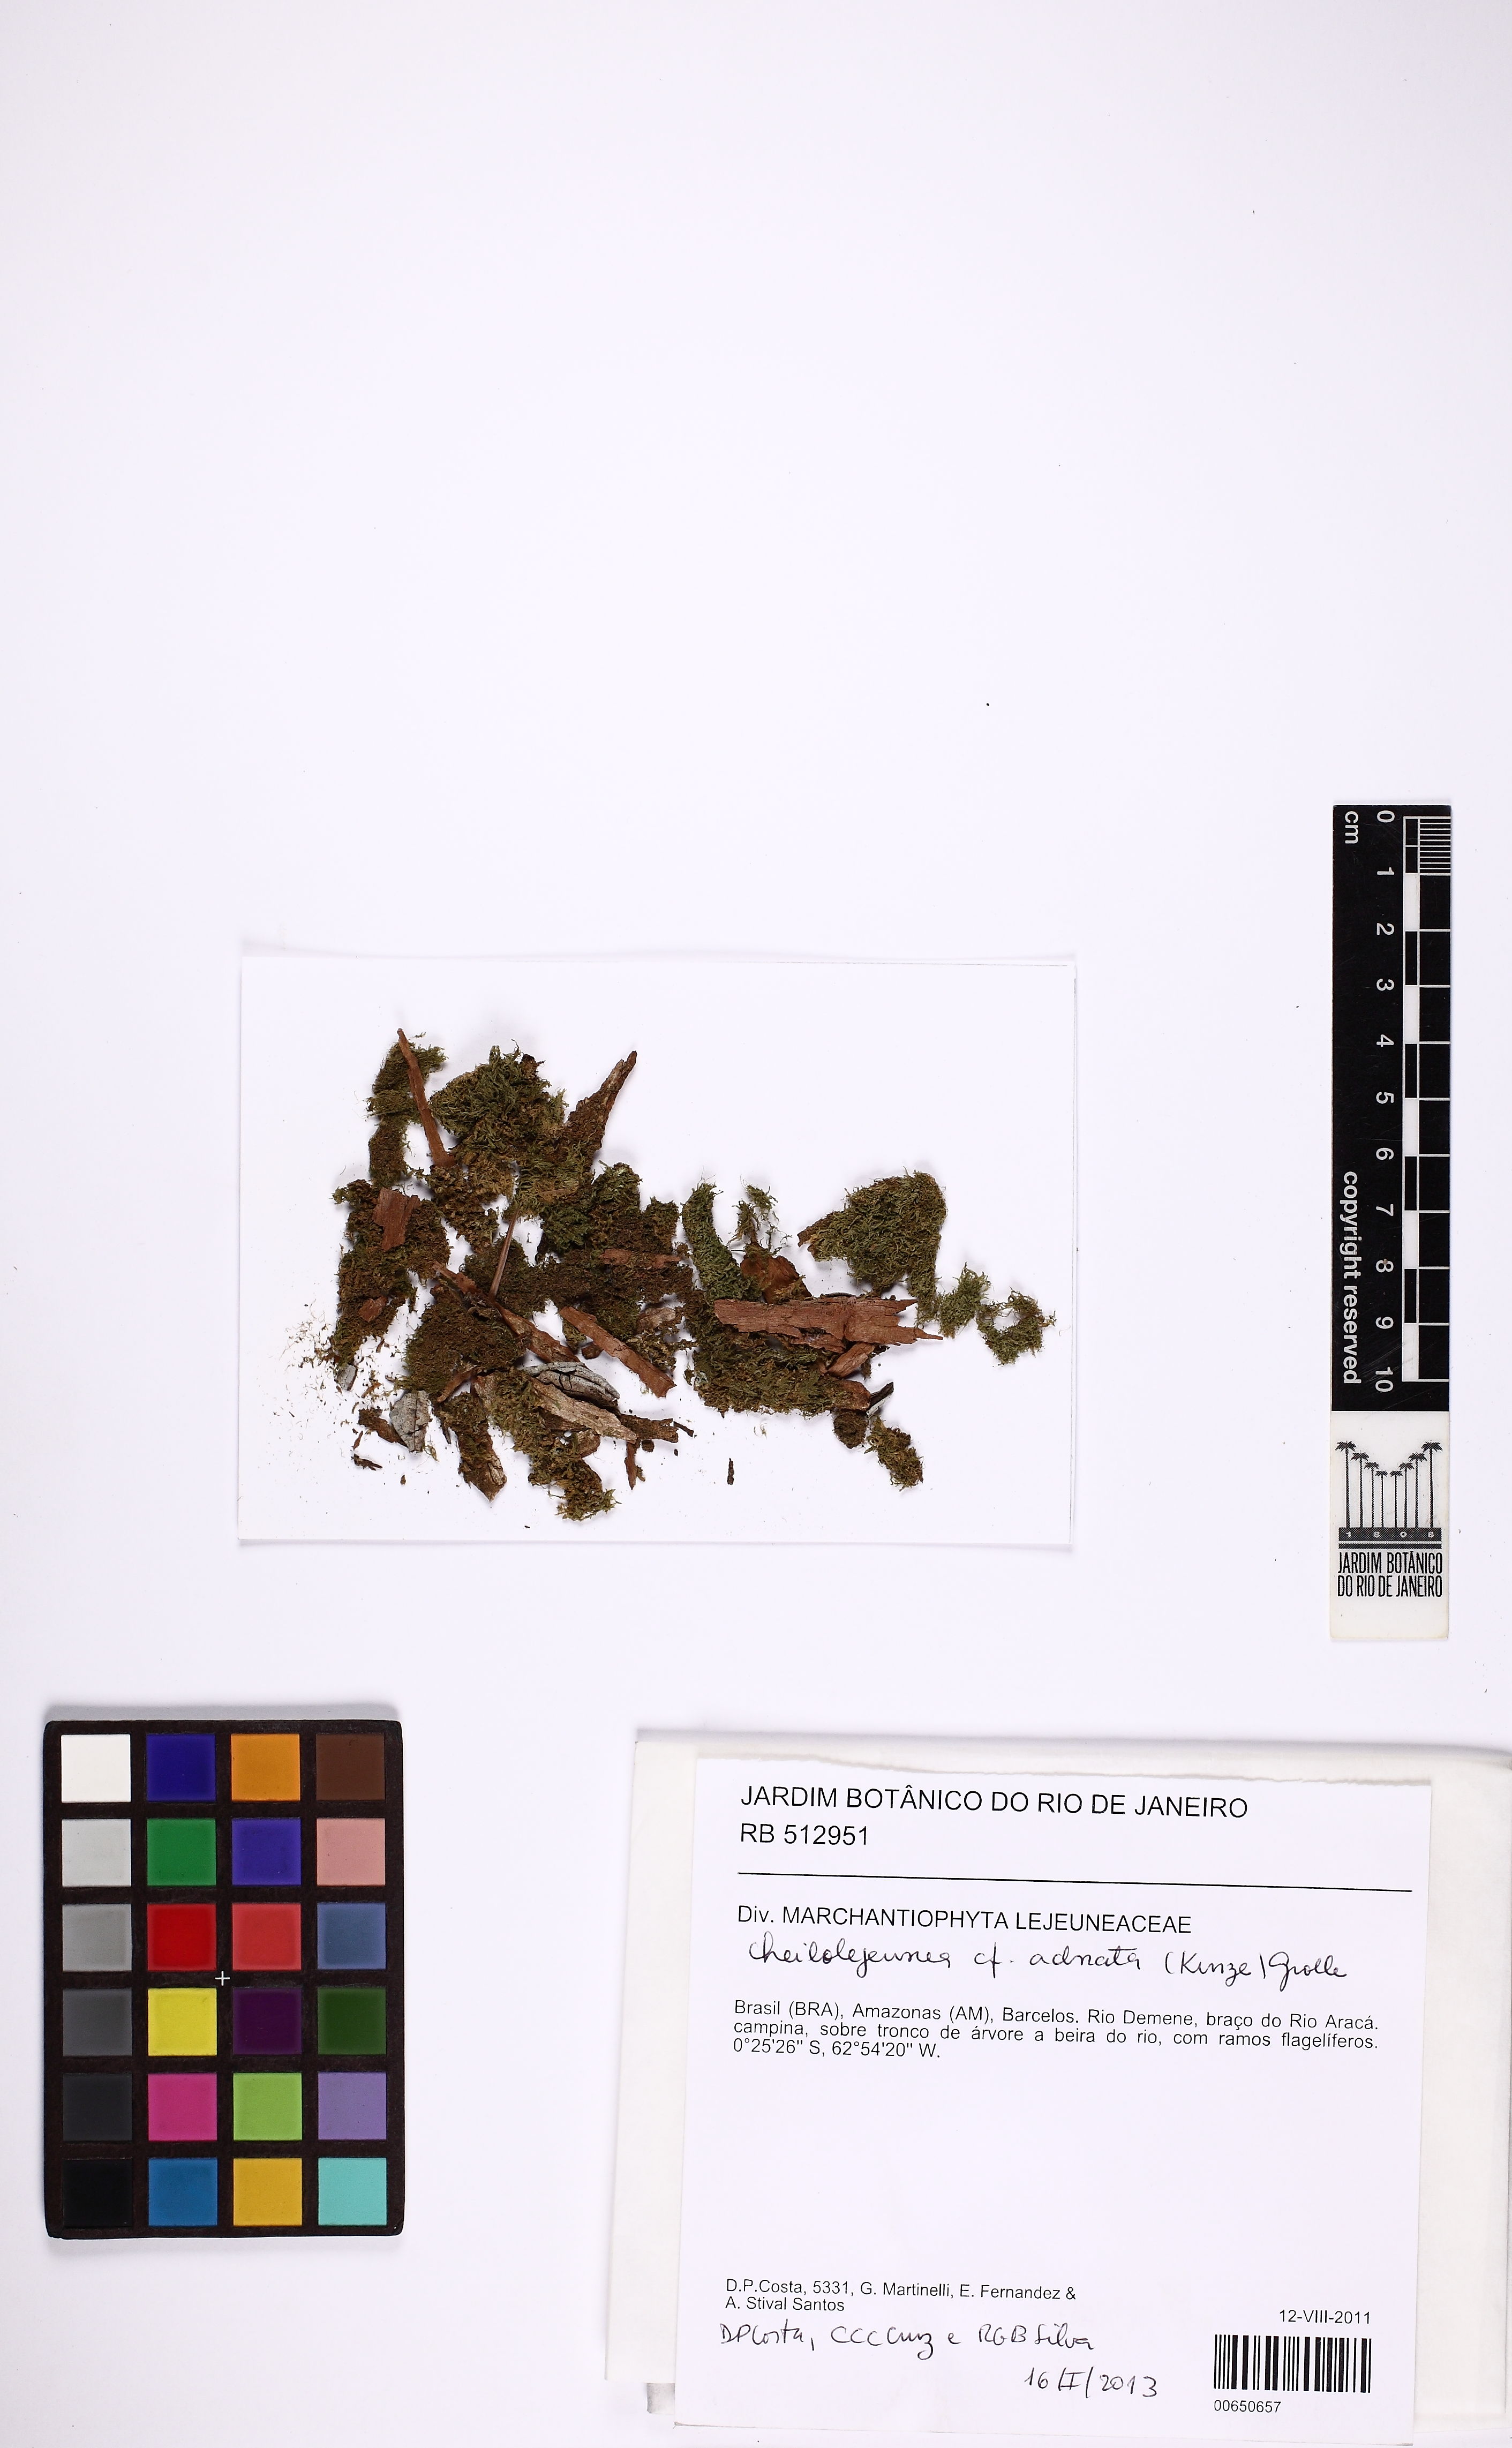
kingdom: Plantae
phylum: Marchantiophyta
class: Jungermanniopsida
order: Porellales
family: Lejeuneaceae
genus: Cheilolejeunea
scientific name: Cheilolejeunea adnata
